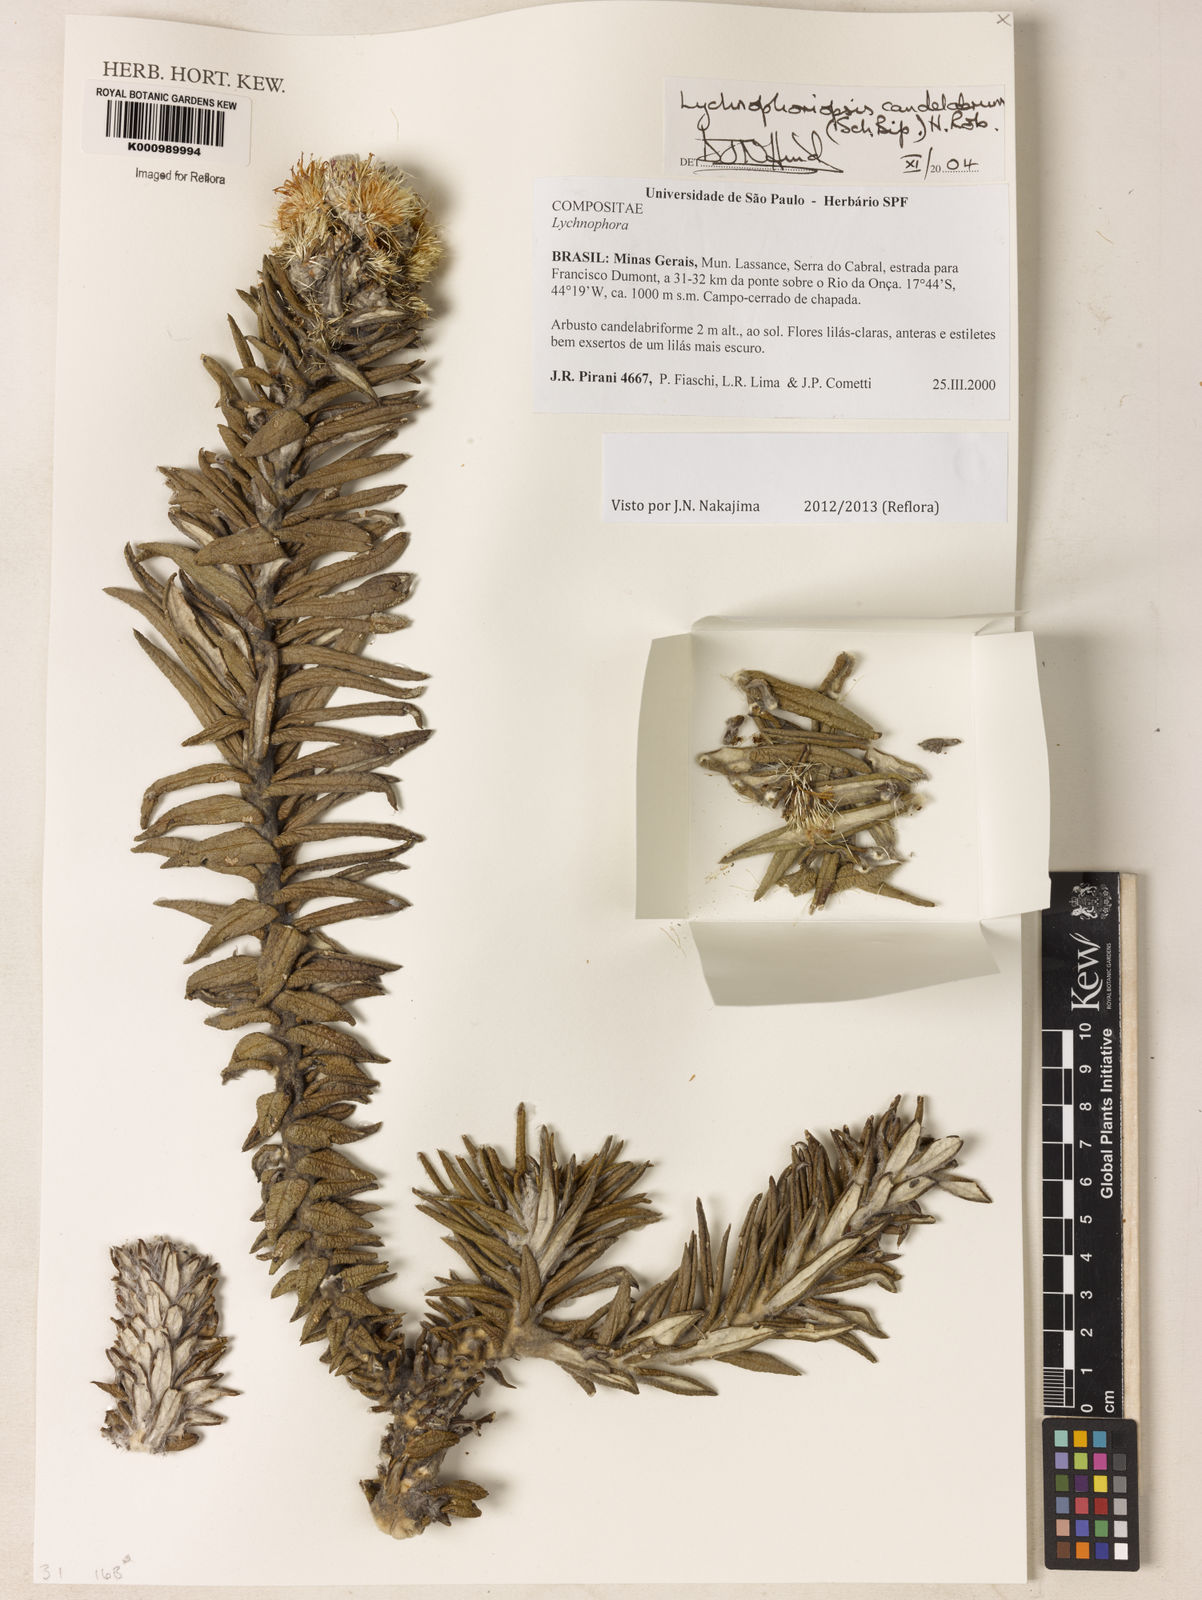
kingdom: Plantae
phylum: Tracheophyta
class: Magnoliopsida
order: Asterales
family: Asteraceae
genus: Lychnophora
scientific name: Lychnophora candelabrum
